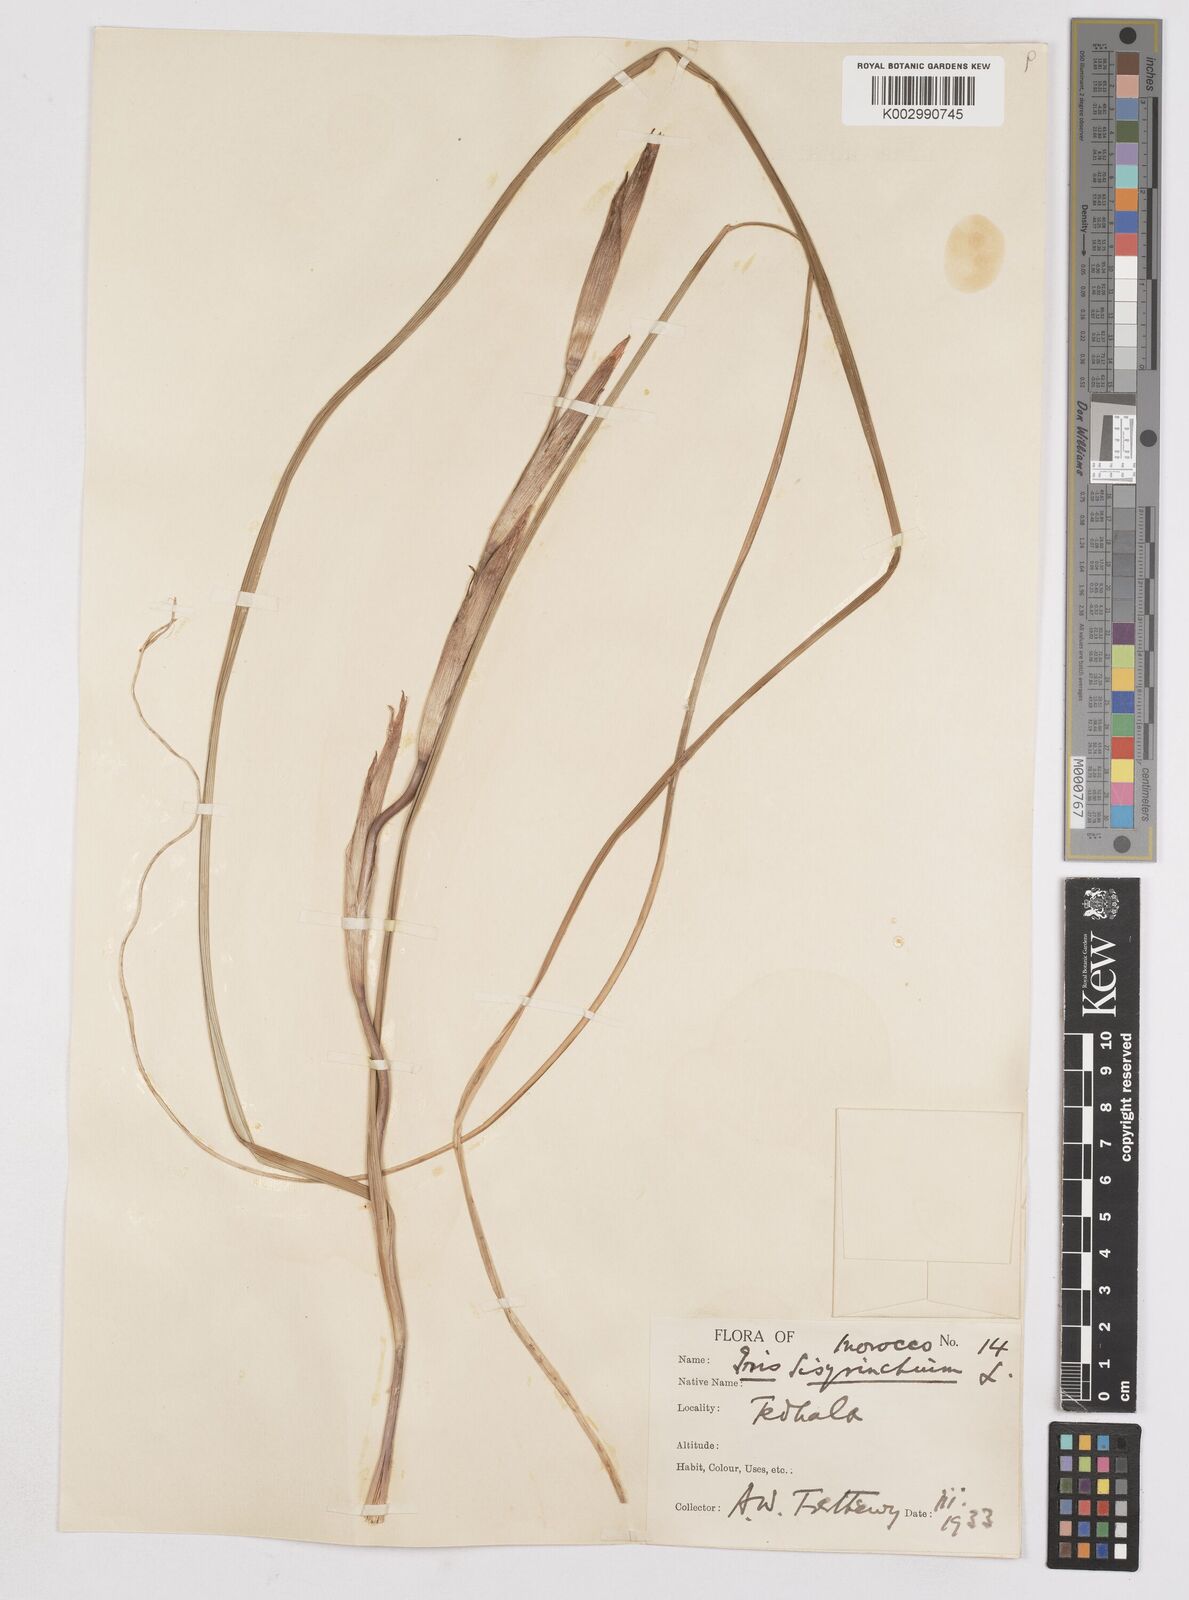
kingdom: Plantae
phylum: Tracheophyta
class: Liliopsida
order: Asparagales
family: Iridaceae
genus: Moraea
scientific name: Moraea sisyrinchium
